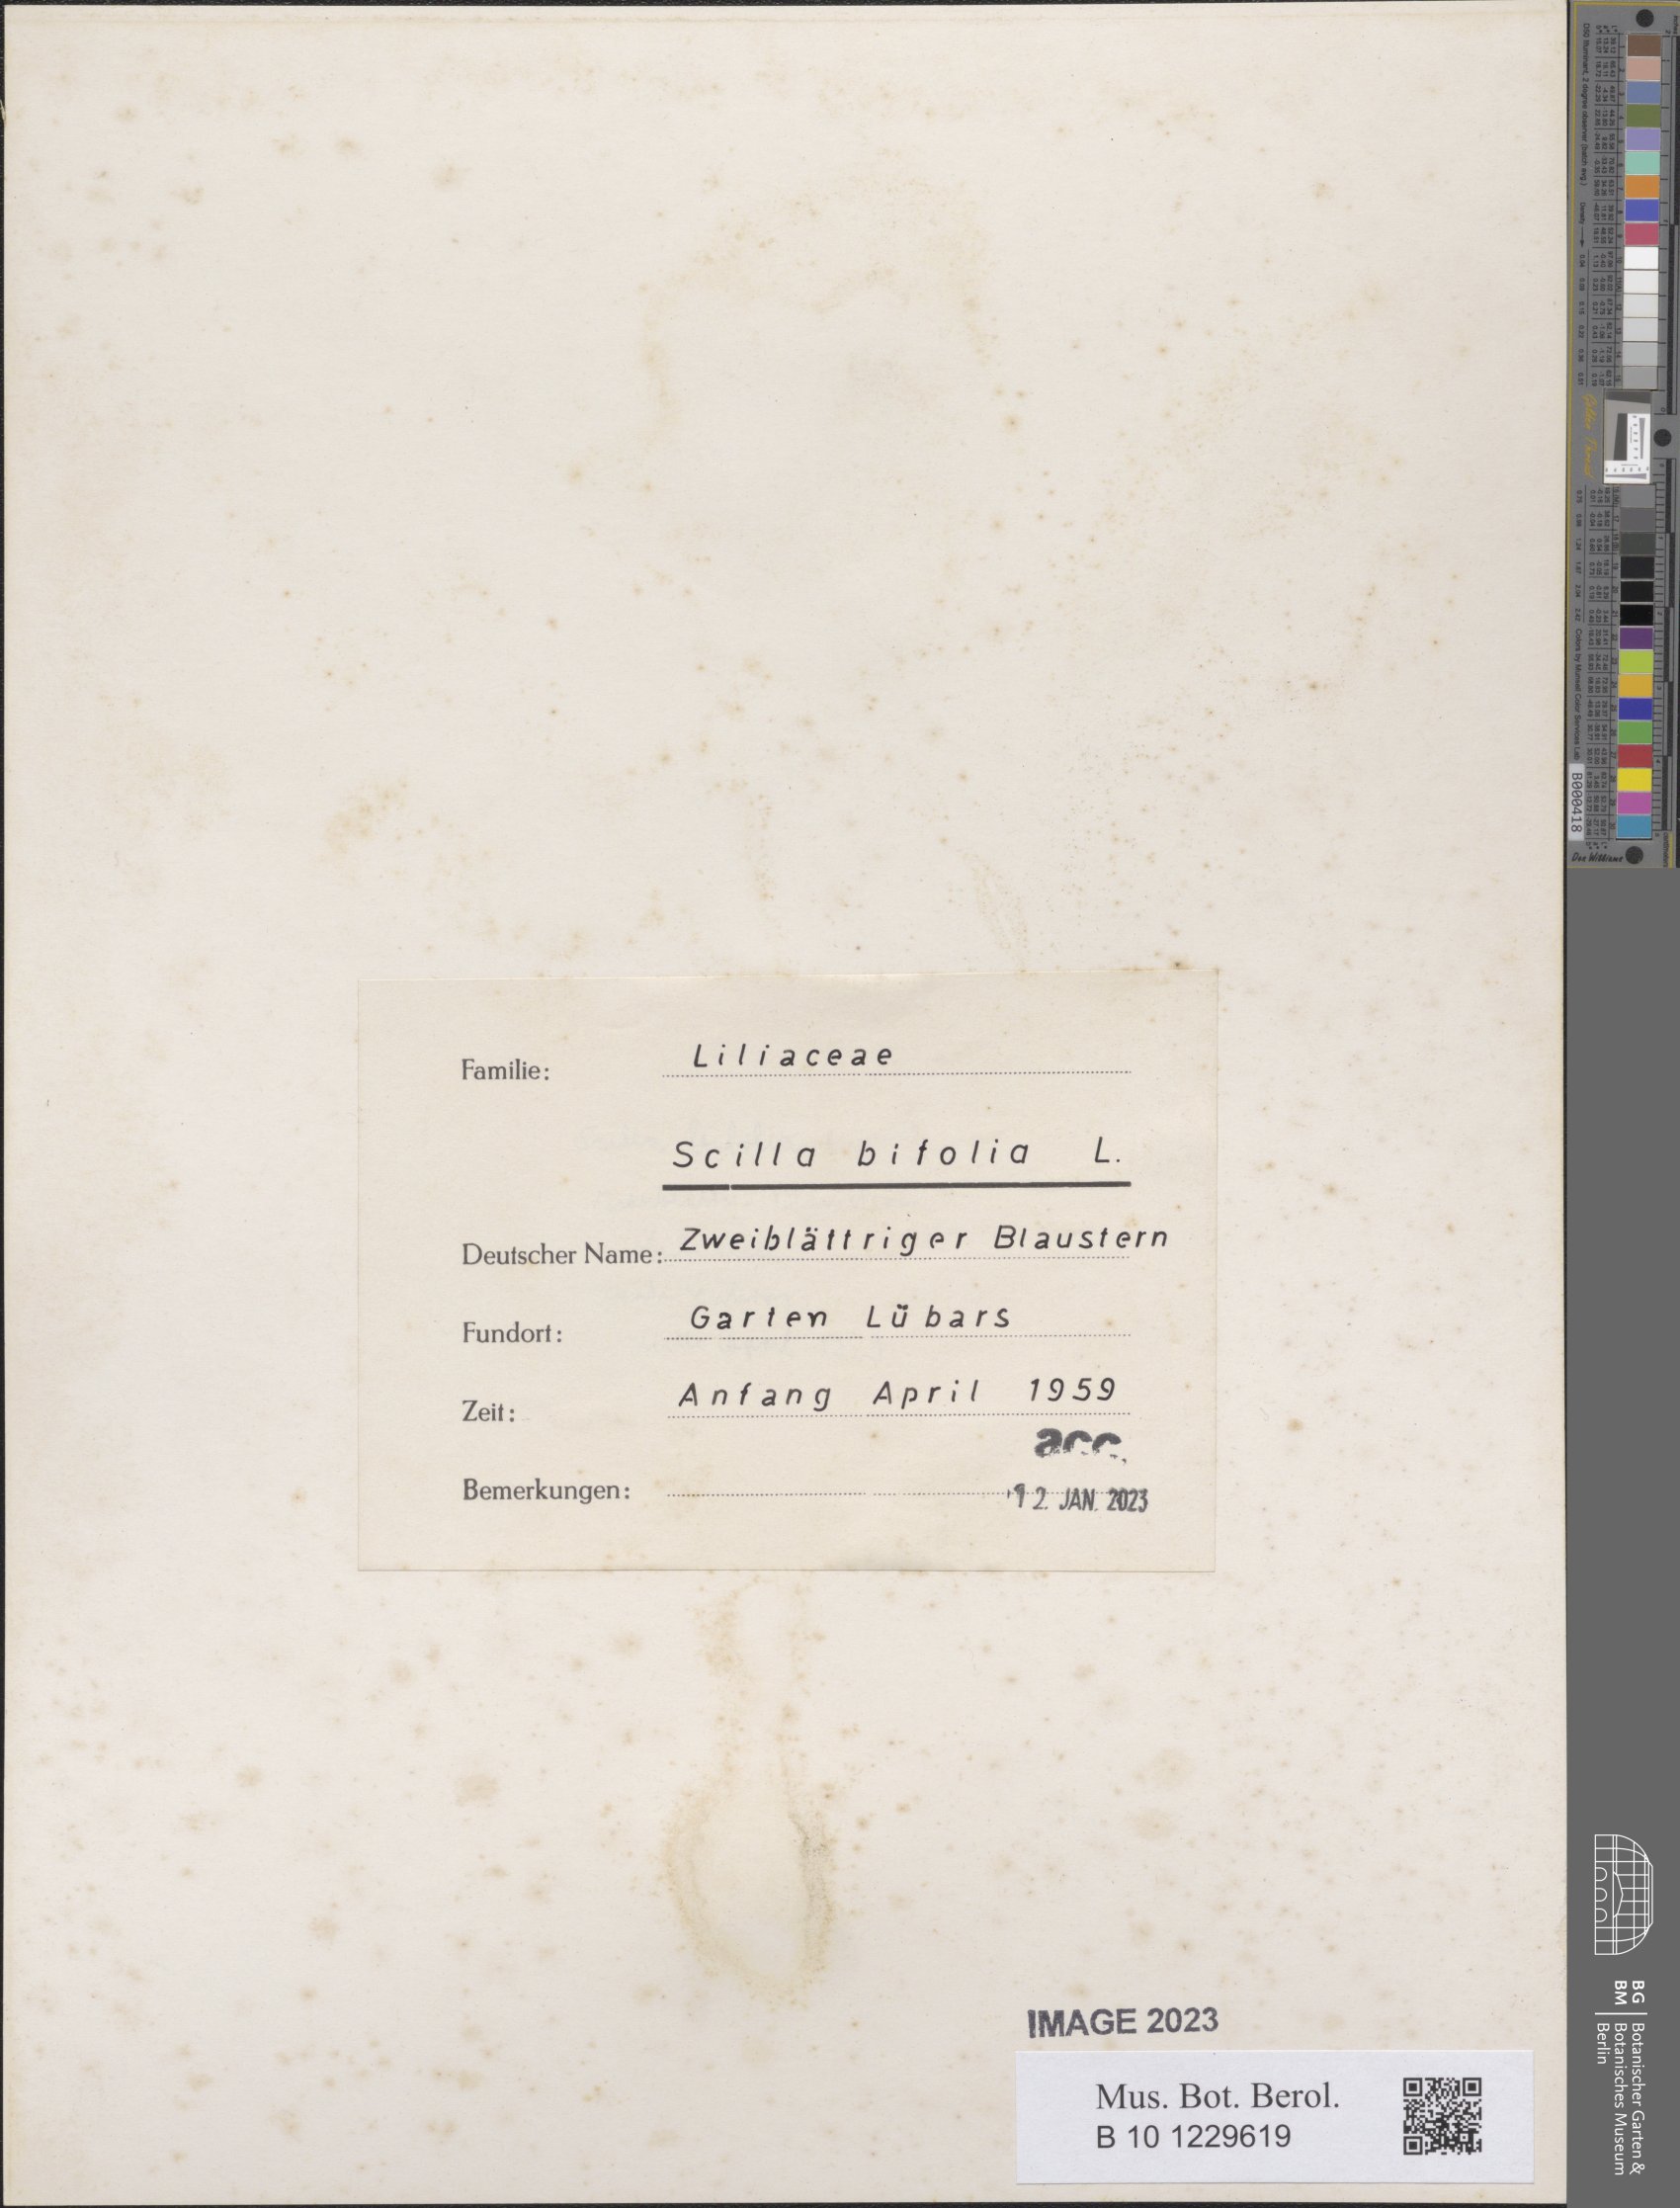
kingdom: Plantae
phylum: Tracheophyta
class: Liliopsida
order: Asparagales
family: Asparagaceae
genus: Scilla
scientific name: Scilla bifolia
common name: Alpine squill
